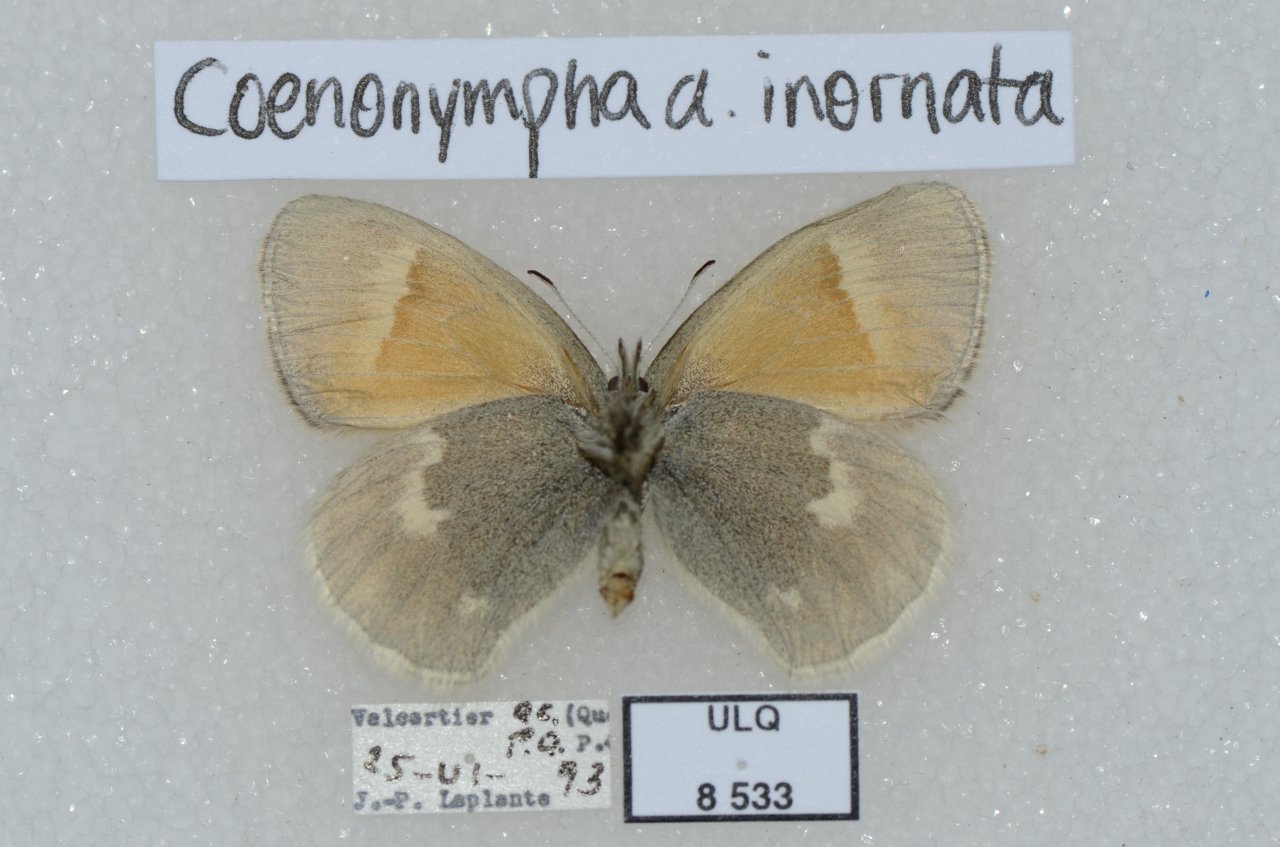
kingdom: Animalia
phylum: Arthropoda
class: Insecta
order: Lepidoptera
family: Nymphalidae
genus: Coenonympha
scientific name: Coenonympha tullia
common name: Large Heath
